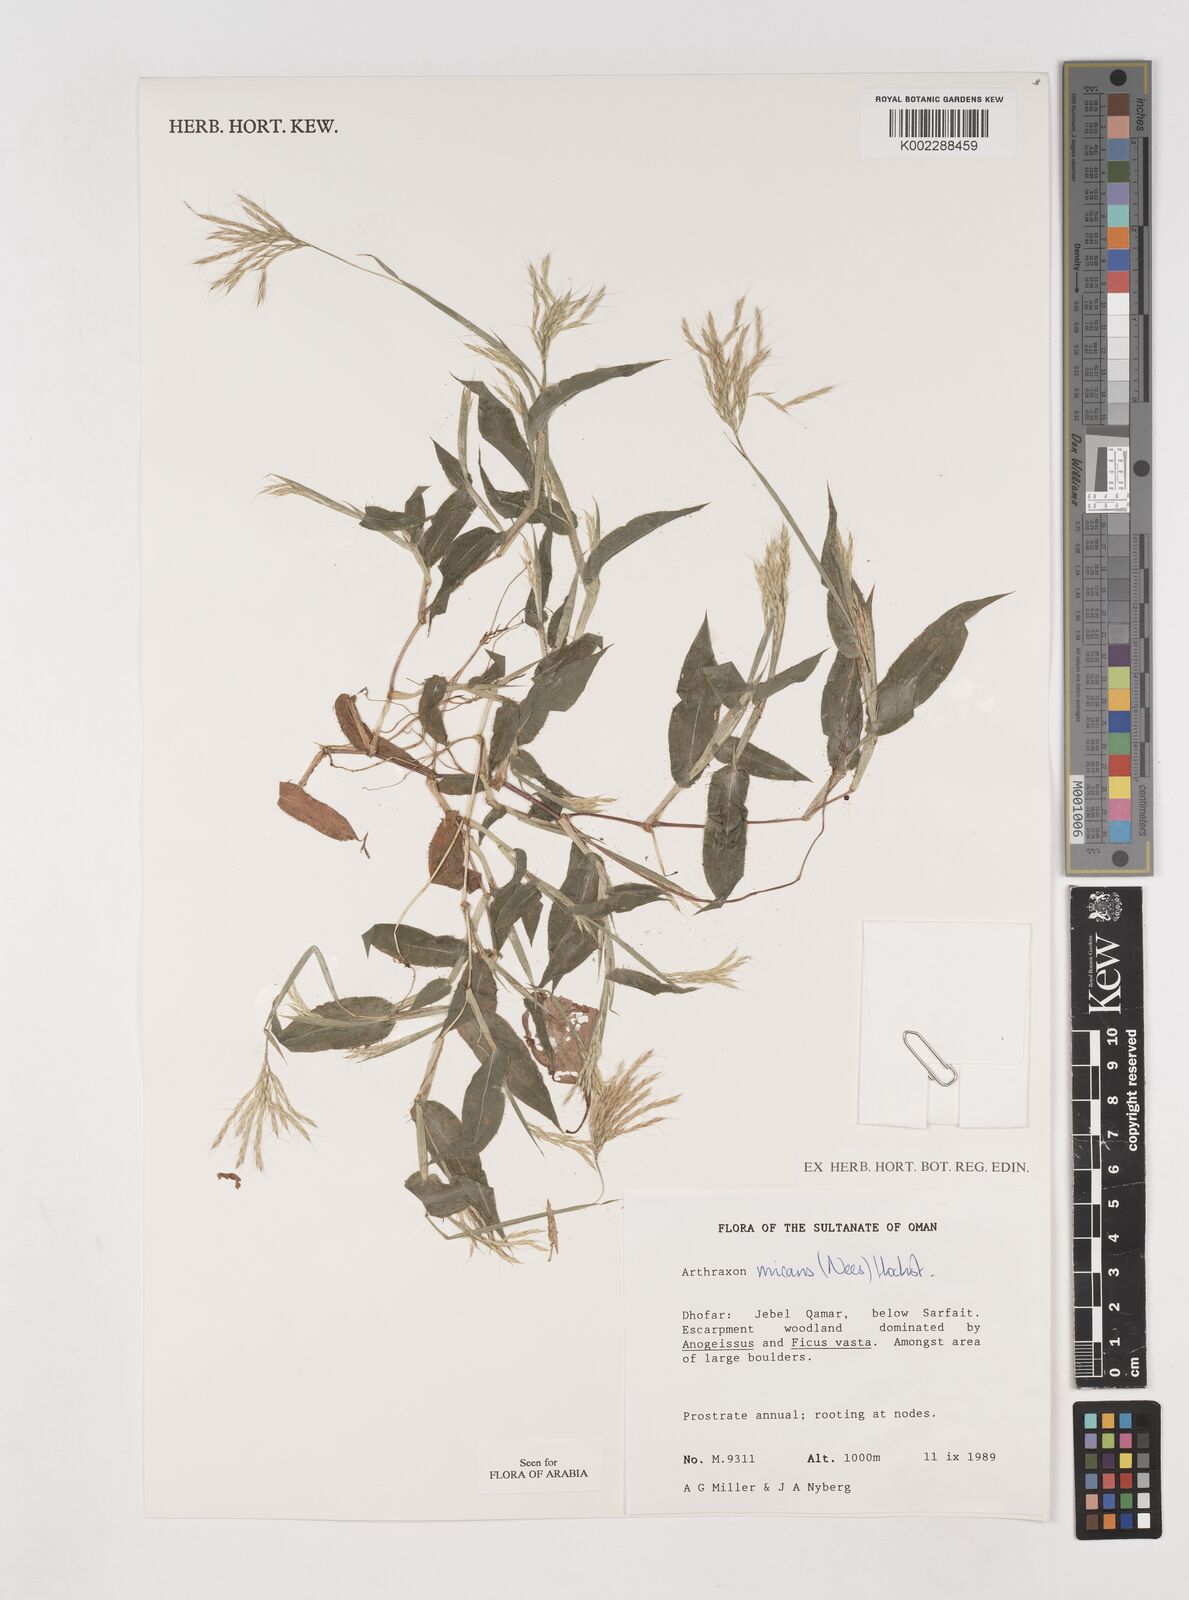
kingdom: Plantae
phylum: Tracheophyta
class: Liliopsida
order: Poales
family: Poaceae
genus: Arthraxon
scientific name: Arthraxon hispidus
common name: Small carpgrass
